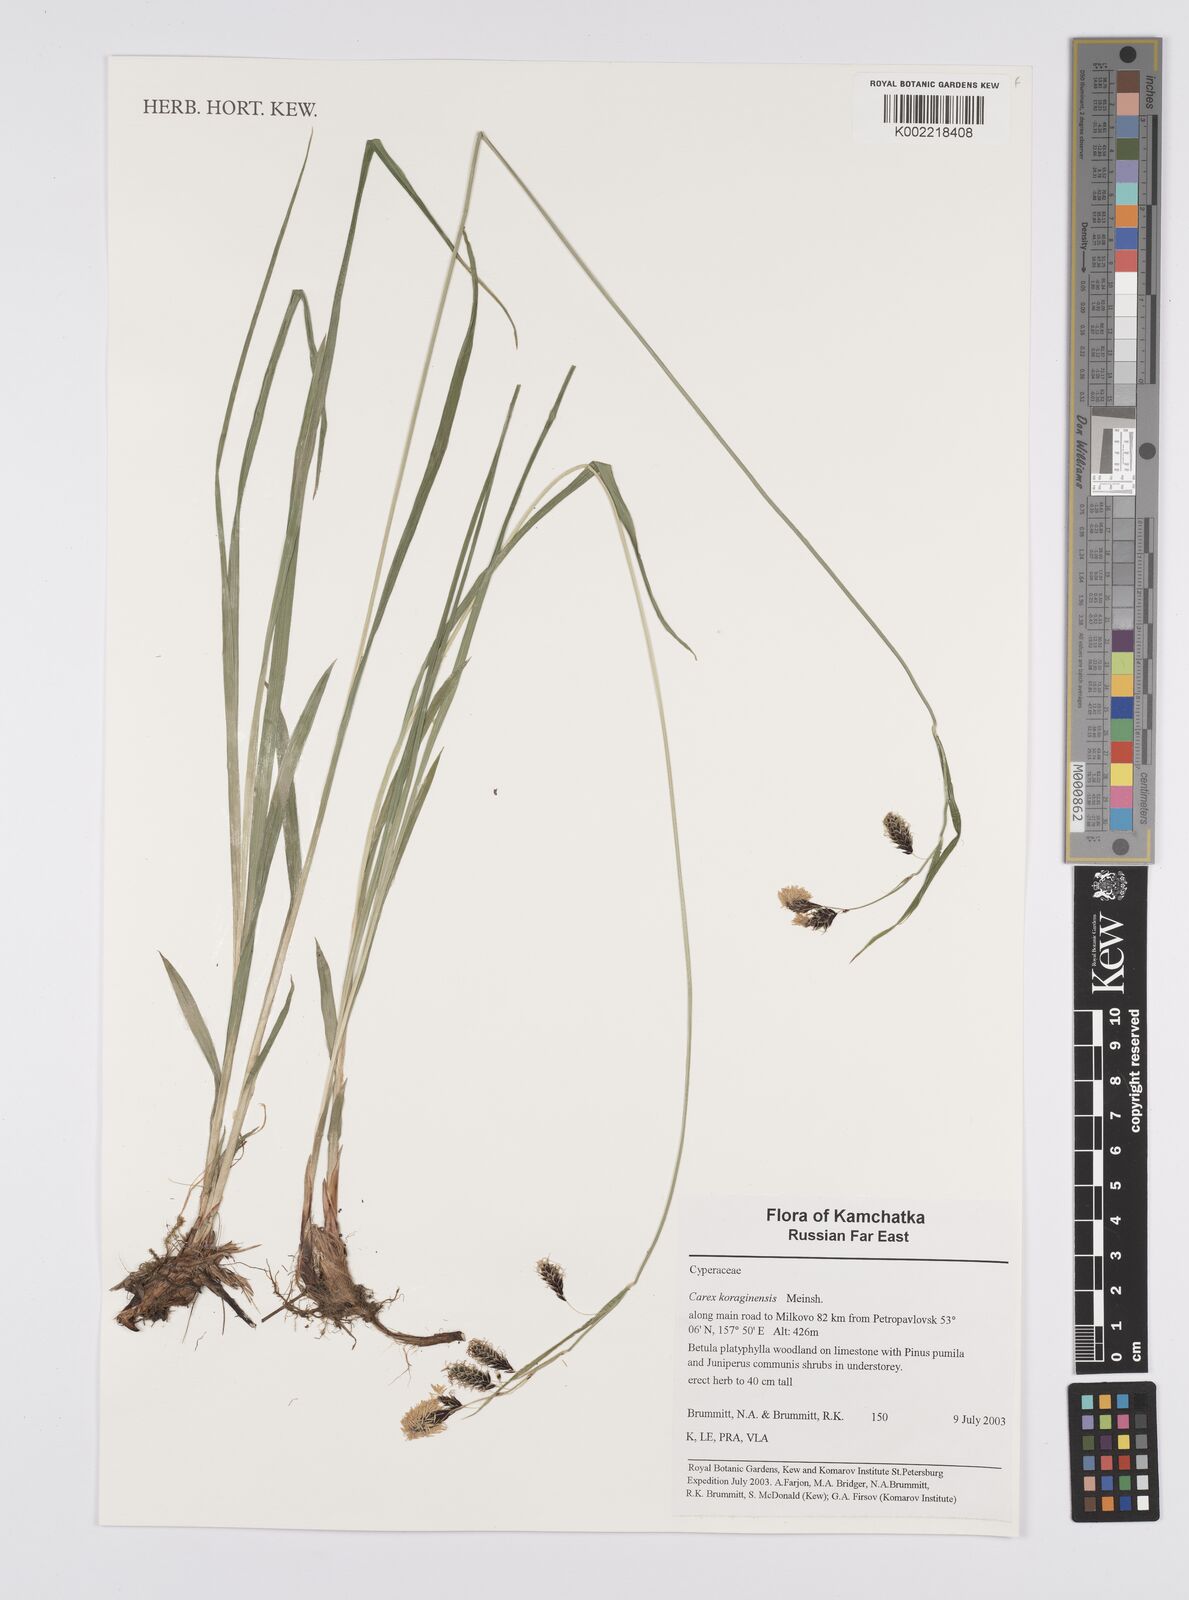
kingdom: Plantae
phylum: Tracheophyta
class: Liliopsida
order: Poales
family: Cyperaceae
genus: Carex
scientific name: Carex scita
